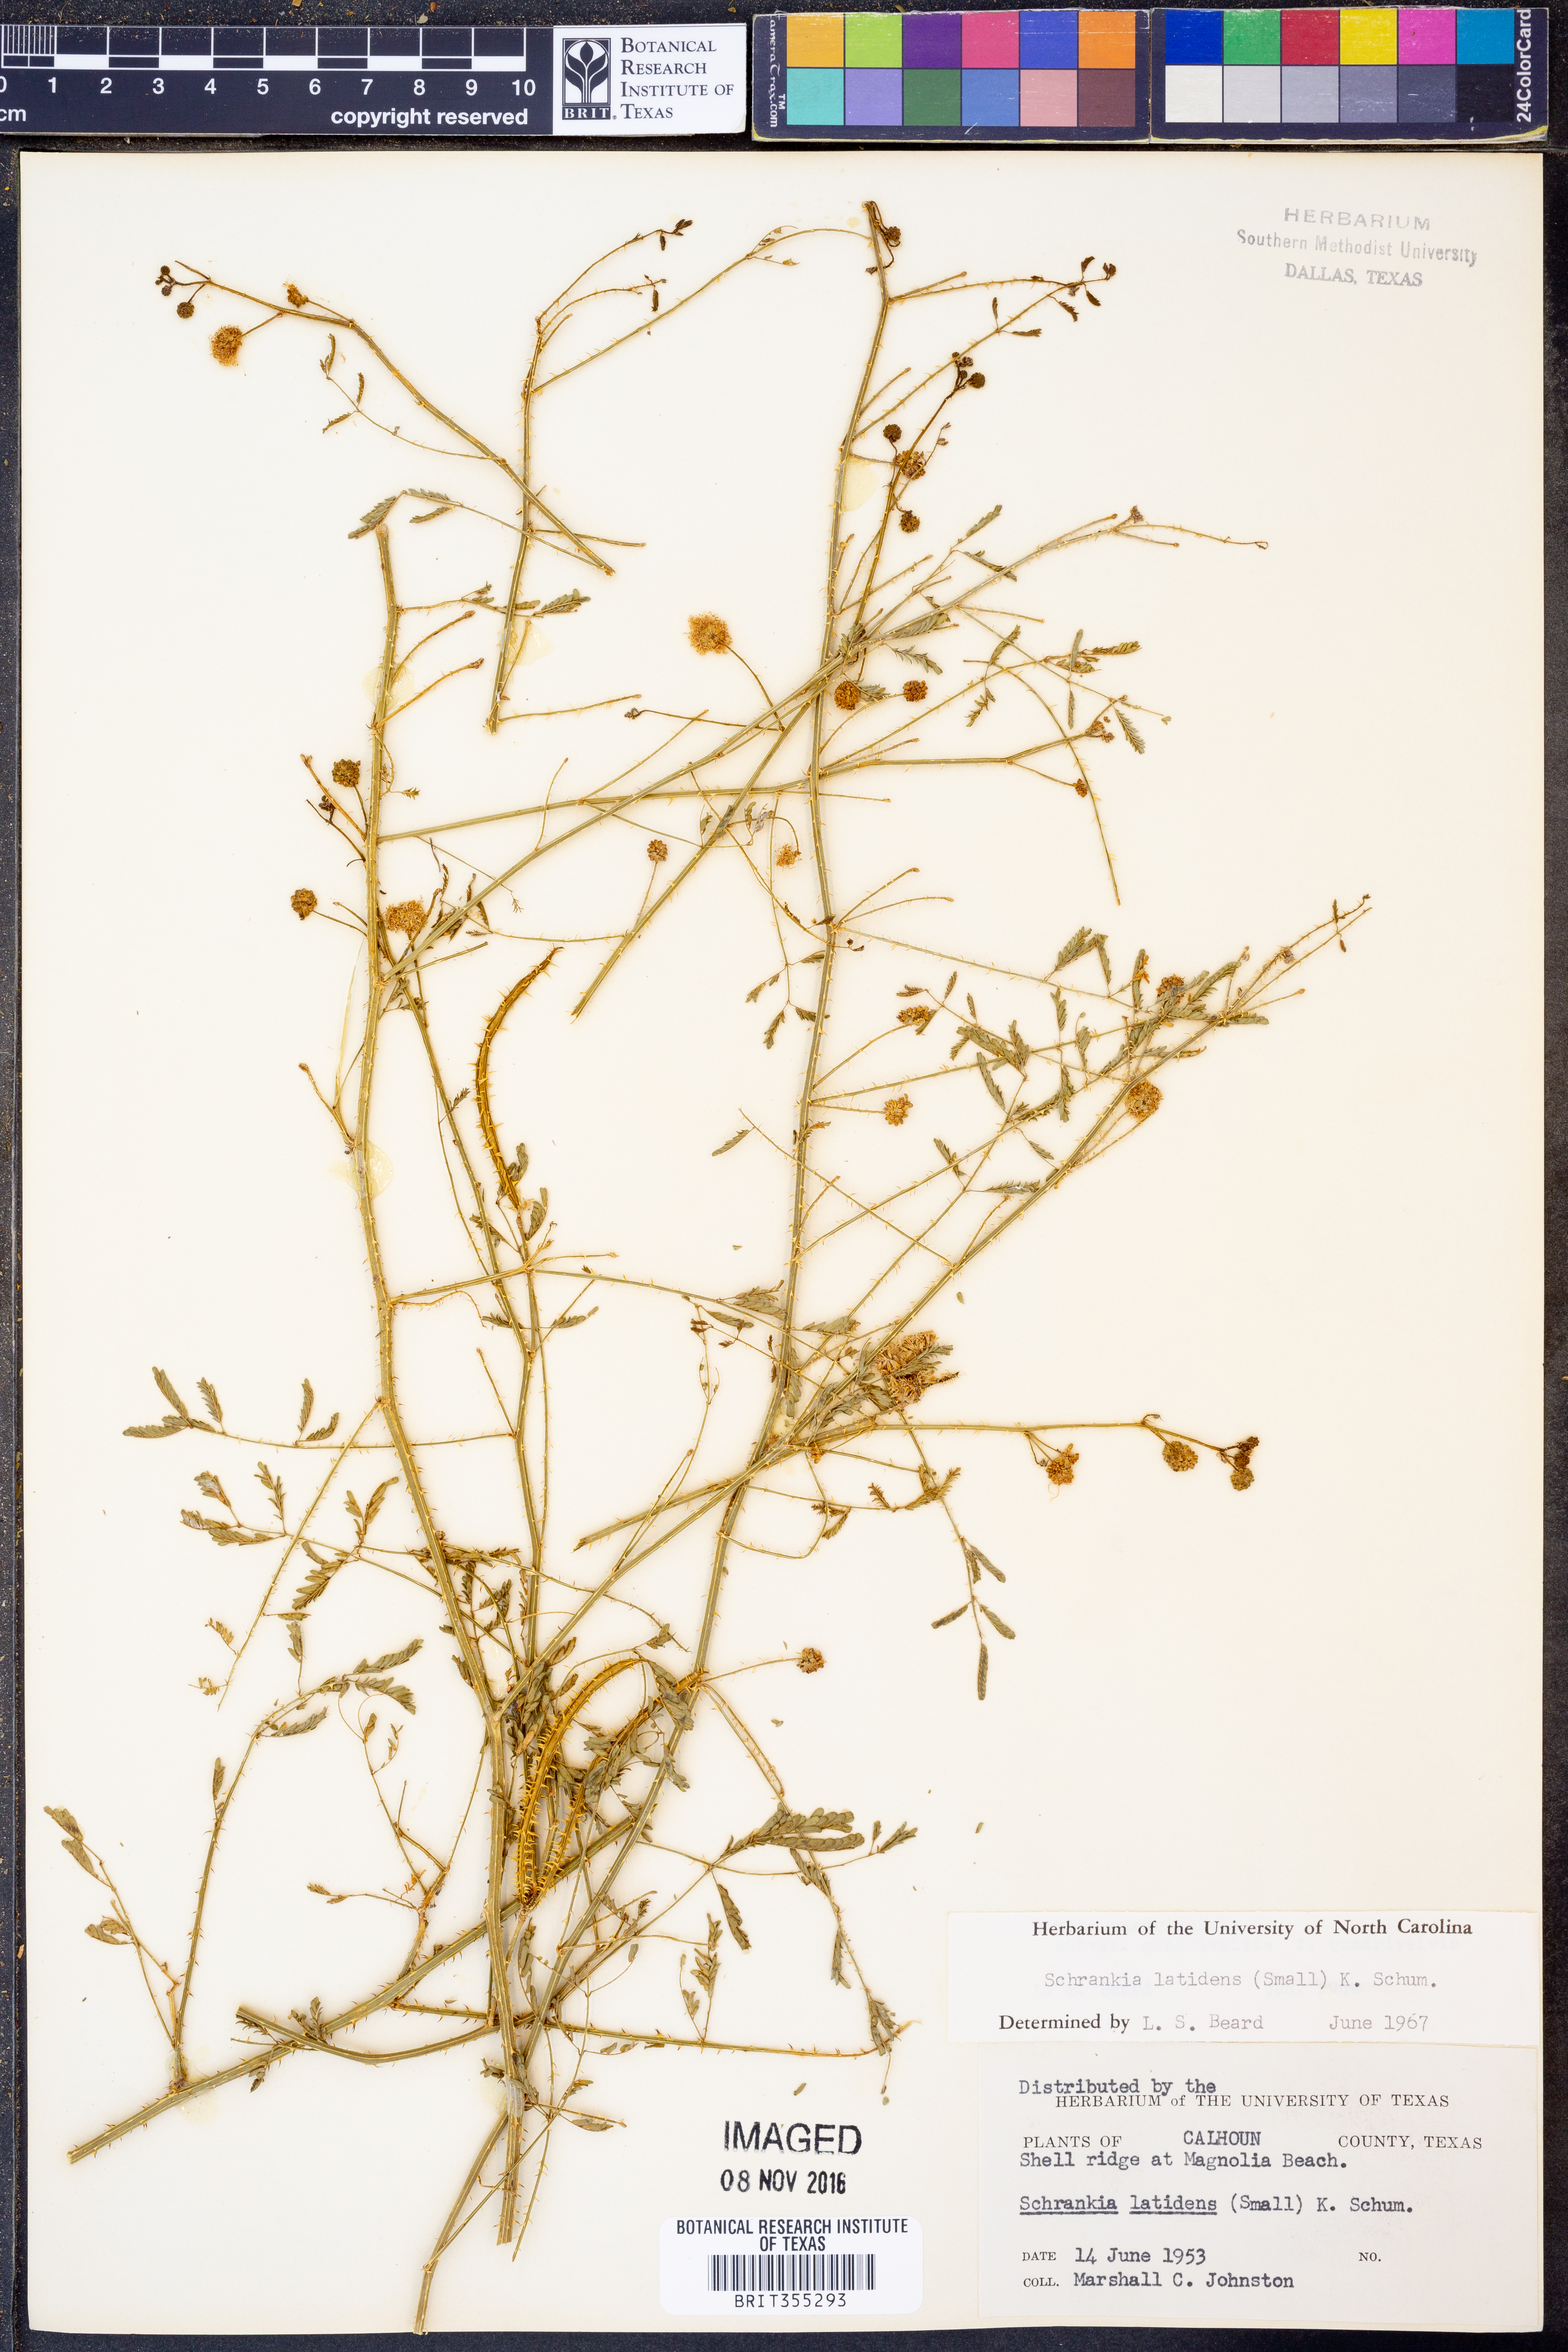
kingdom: Plantae
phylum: Tracheophyta
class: Magnoliopsida
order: Fabales
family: Fabaceae
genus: Mimosa
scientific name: Mimosa quadrivalvis
